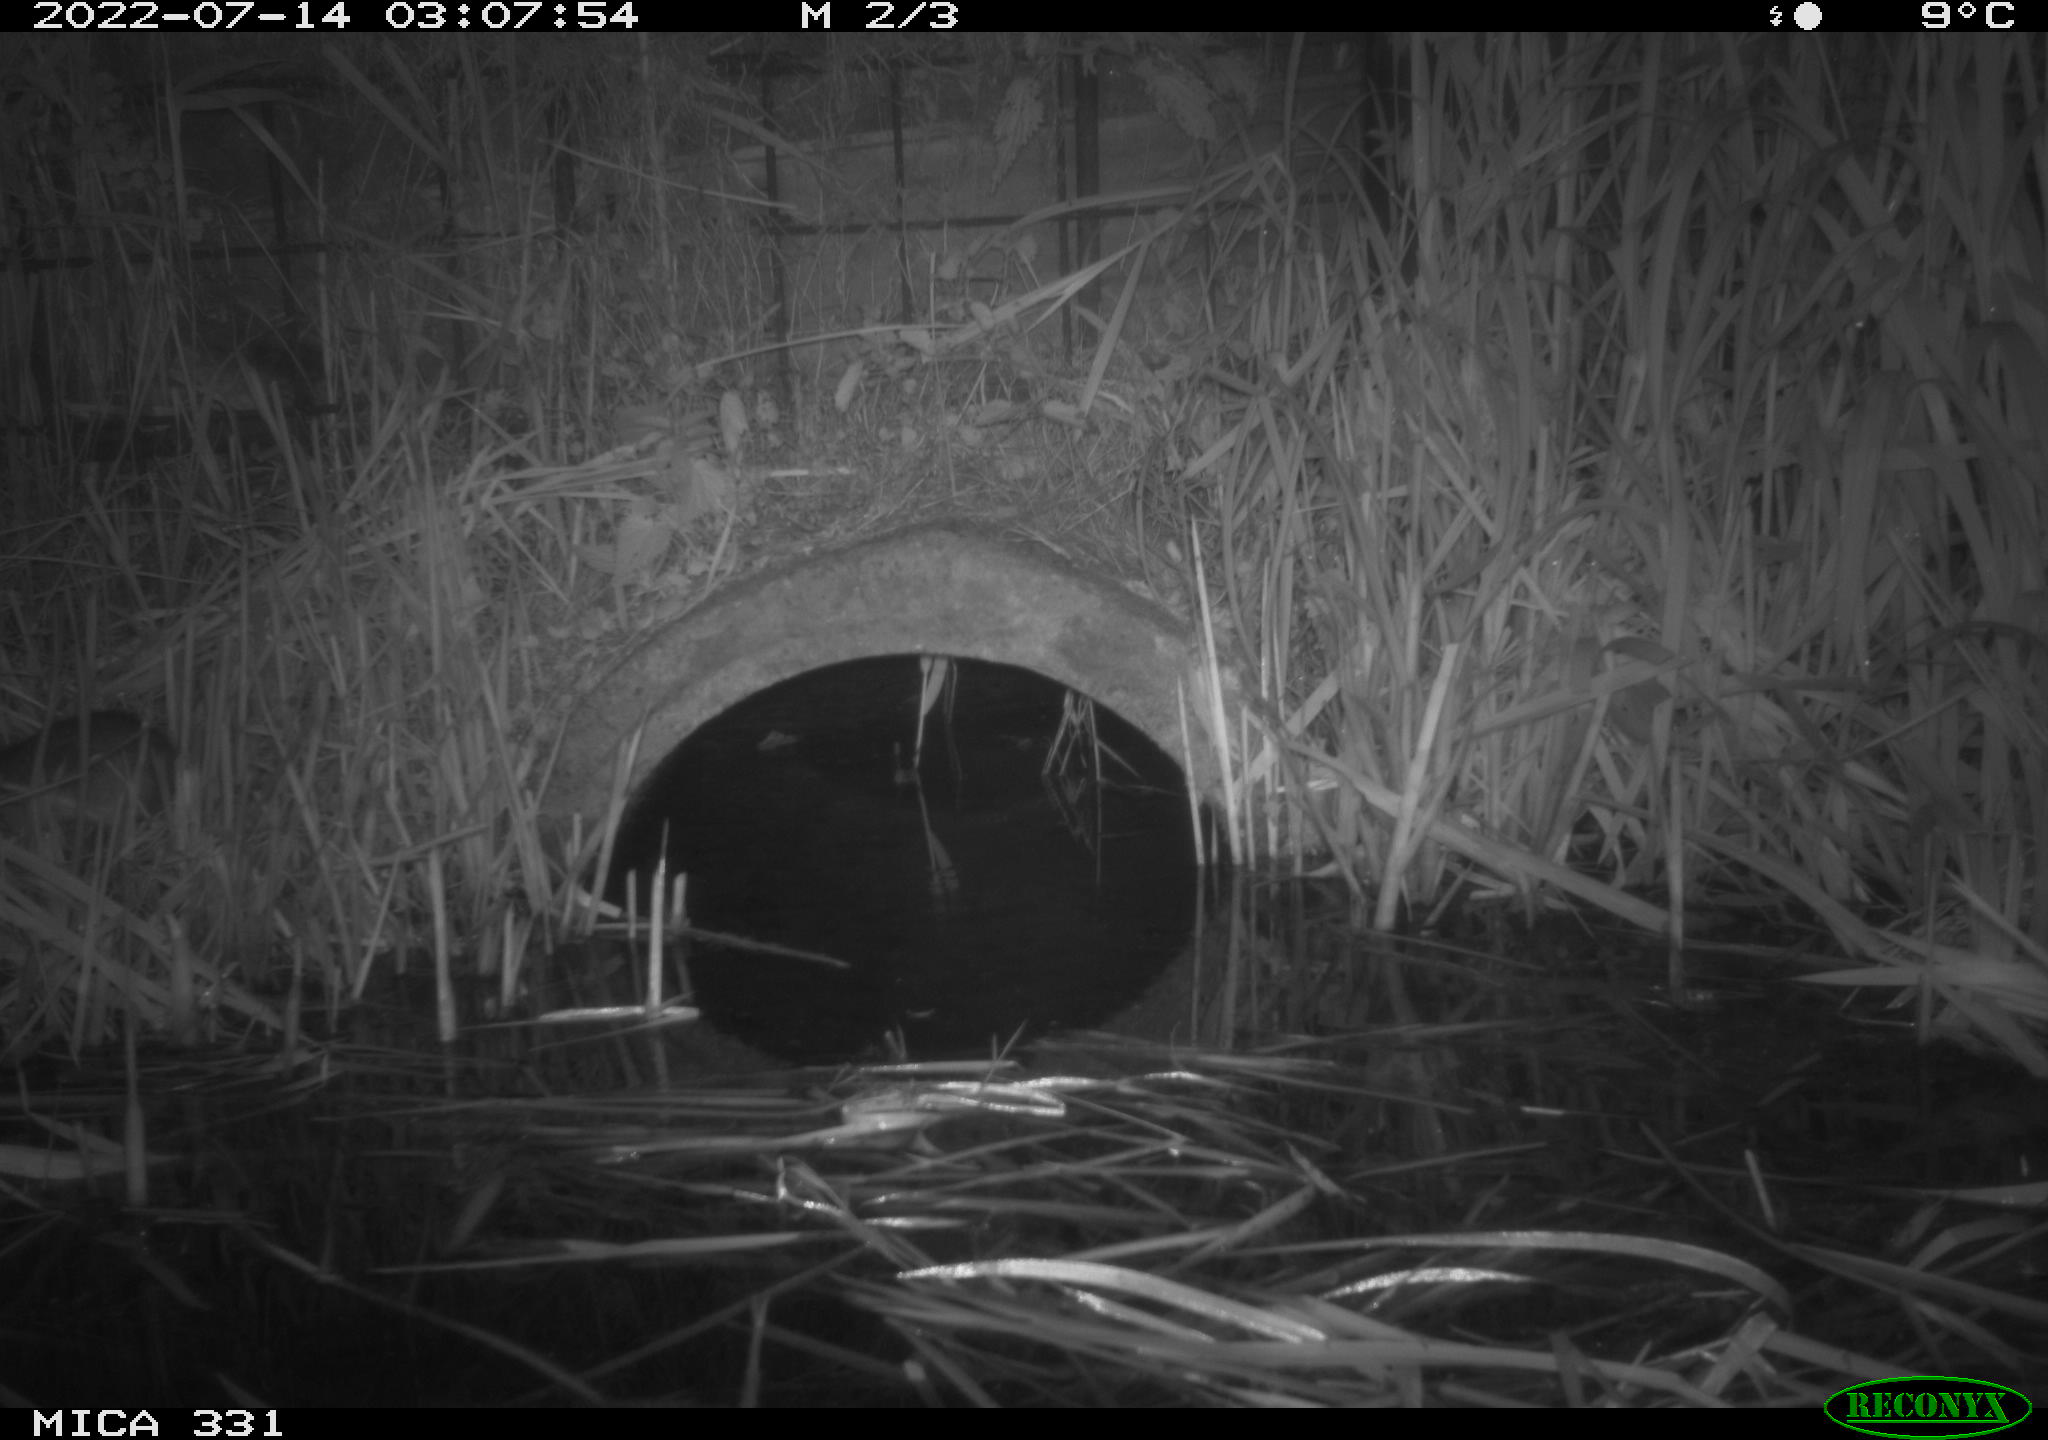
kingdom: Animalia
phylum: Chordata
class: Mammalia
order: Rodentia
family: Muridae
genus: Rattus
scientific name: Rattus norvegicus
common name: Brown rat
